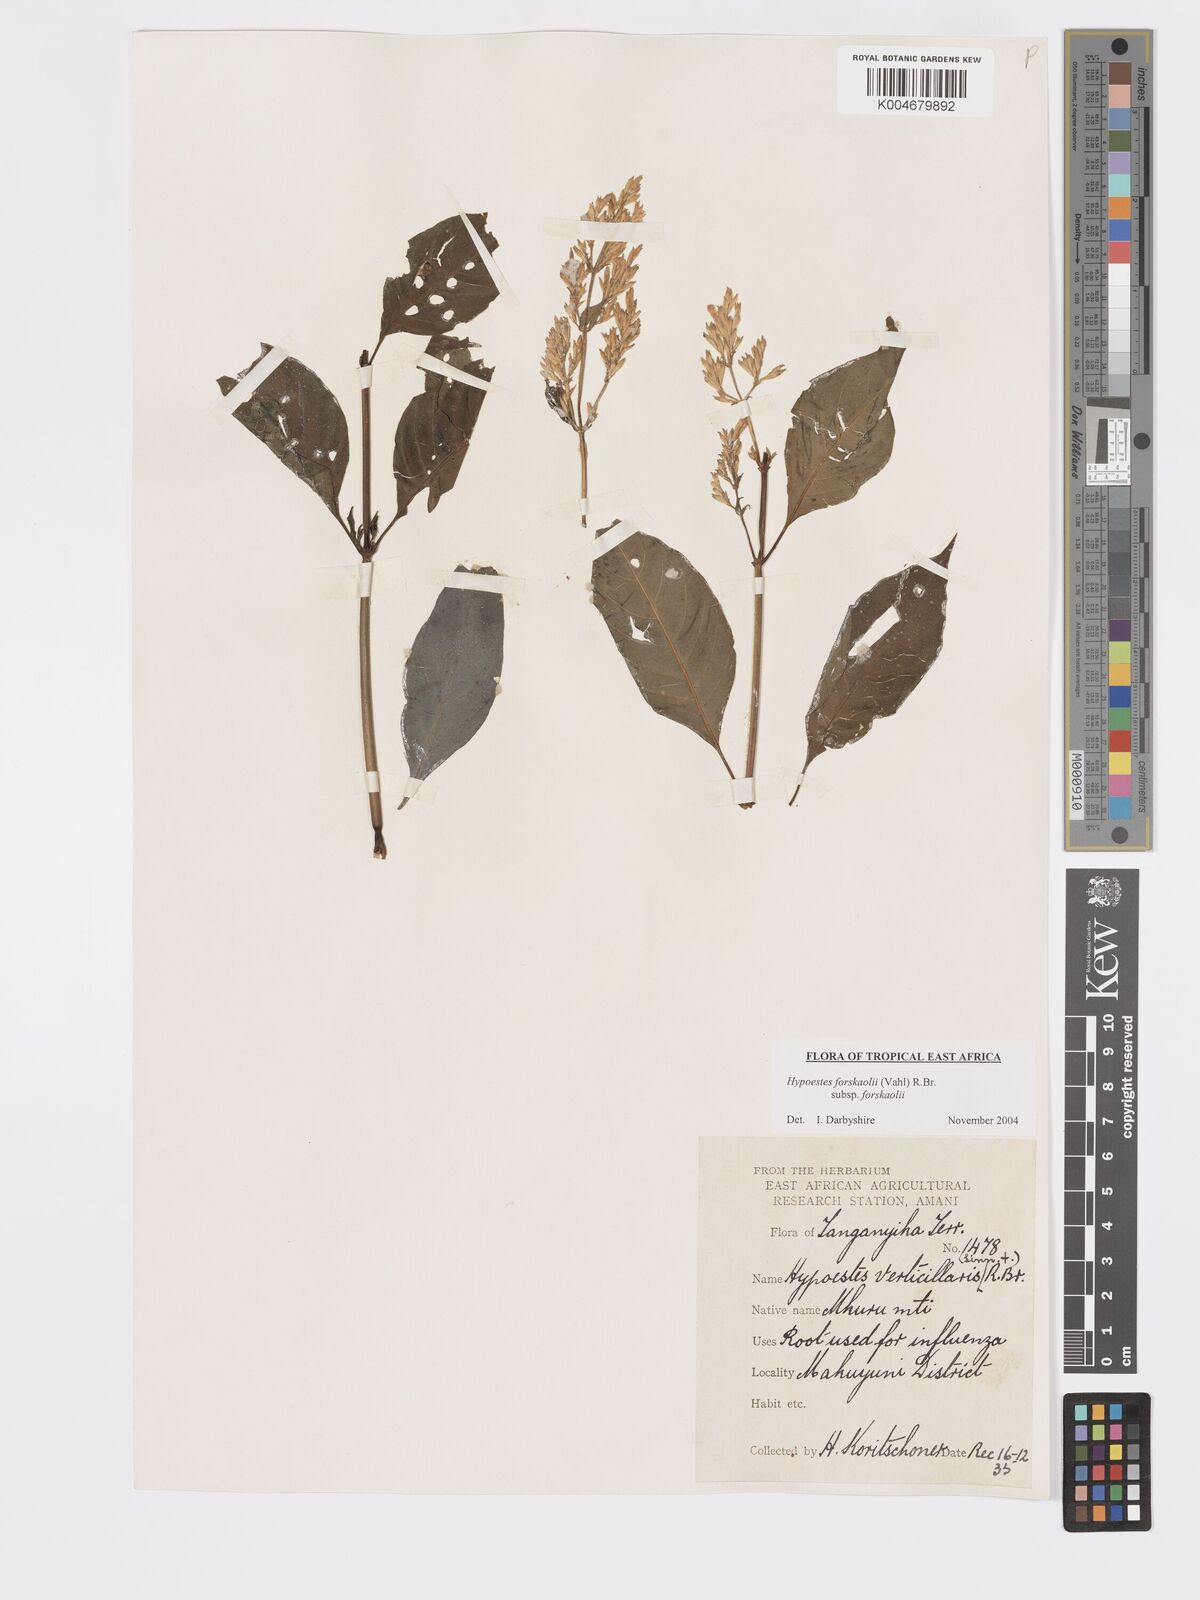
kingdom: Plantae
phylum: Tracheophyta
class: Magnoliopsida
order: Lamiales
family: Acanthaceae
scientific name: Acanthaceae
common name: Acanthaceae
